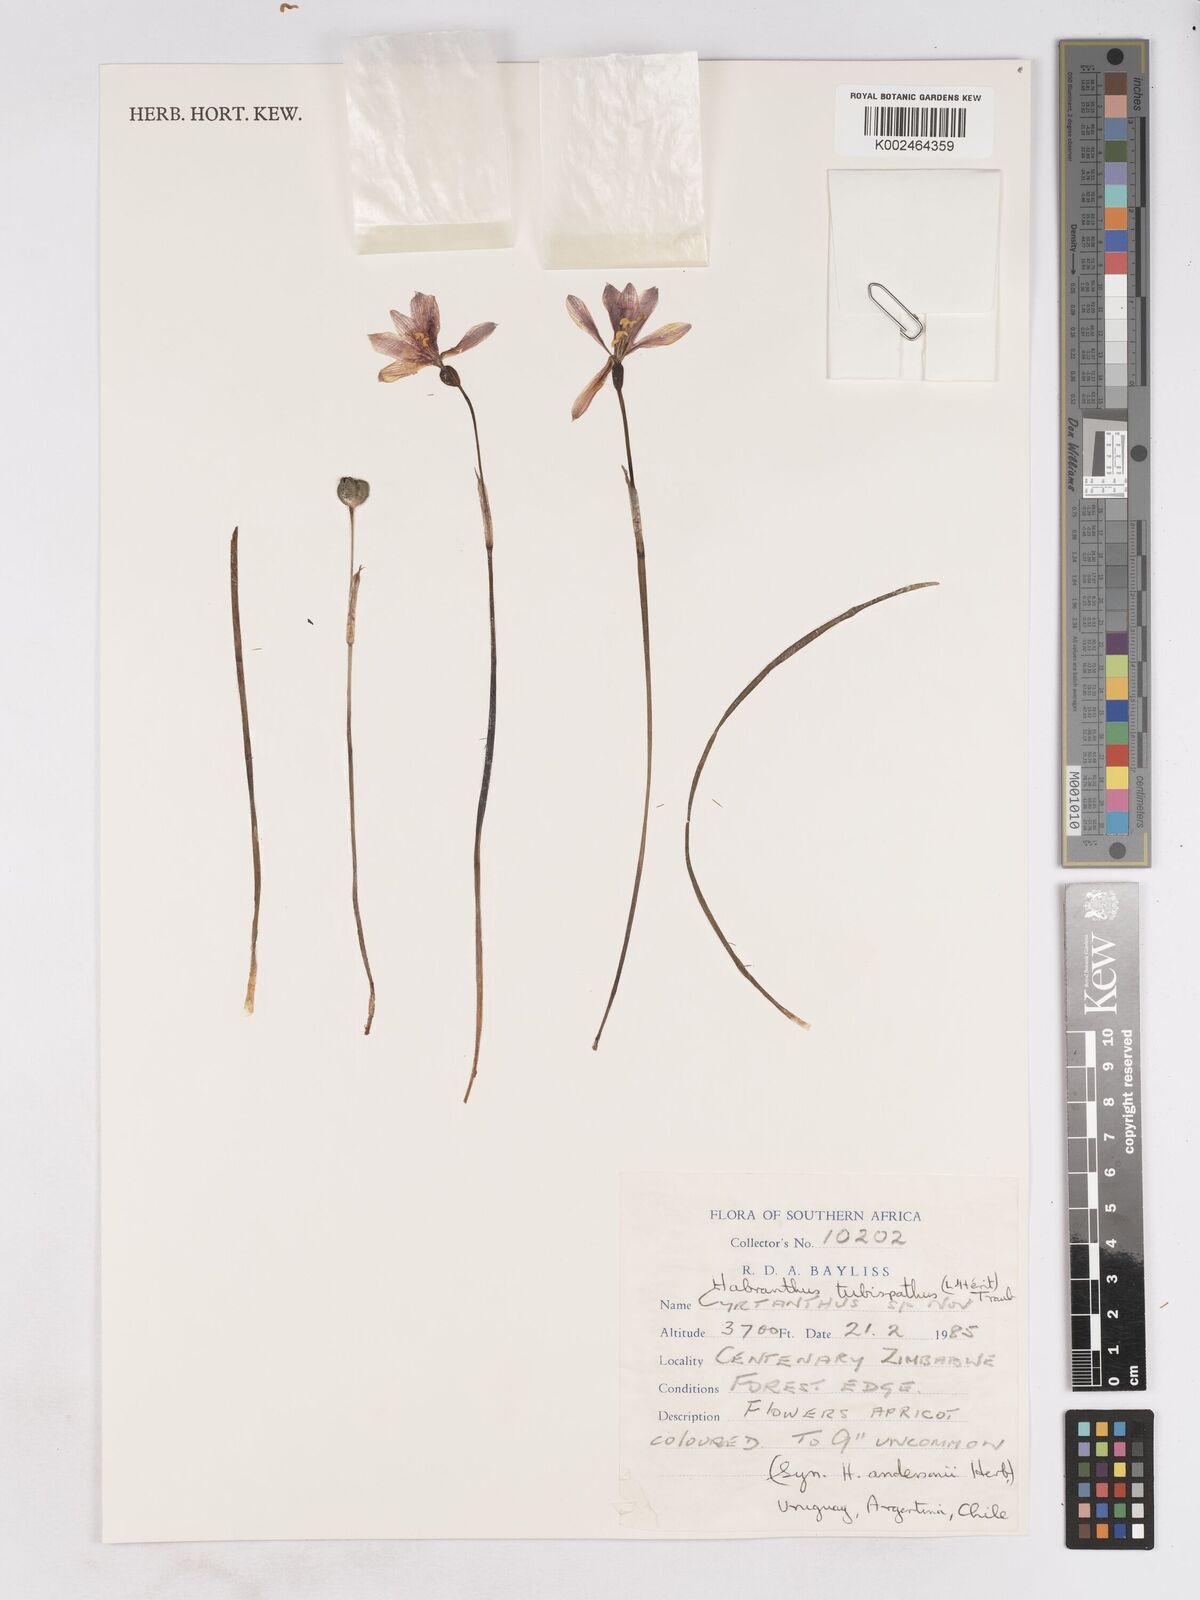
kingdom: Plantae
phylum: Tracheophyta
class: Liliopsida
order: Asparagales
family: Amaryllidaceae
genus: Zephyranthes
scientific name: Zephyranthes tubispatha
